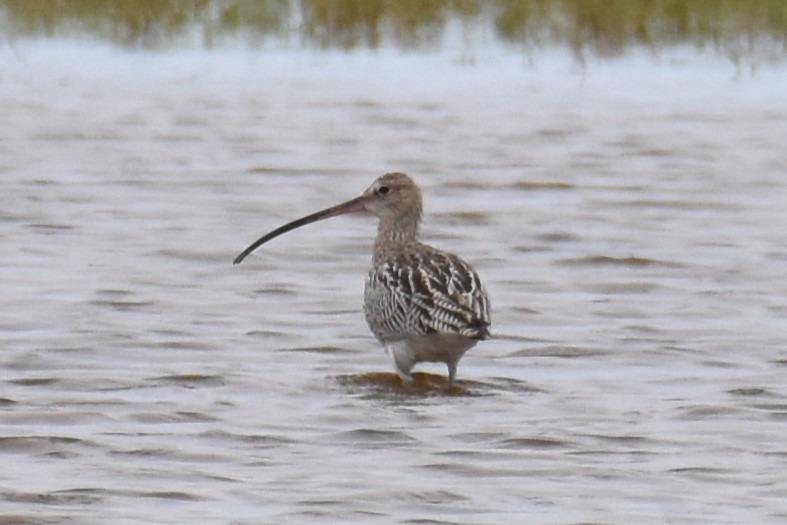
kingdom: Animalia
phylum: Chordata
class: Aves
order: Charadriiformes
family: Scolopacidae
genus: Numenius
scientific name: Numenius arquata
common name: Storspove
